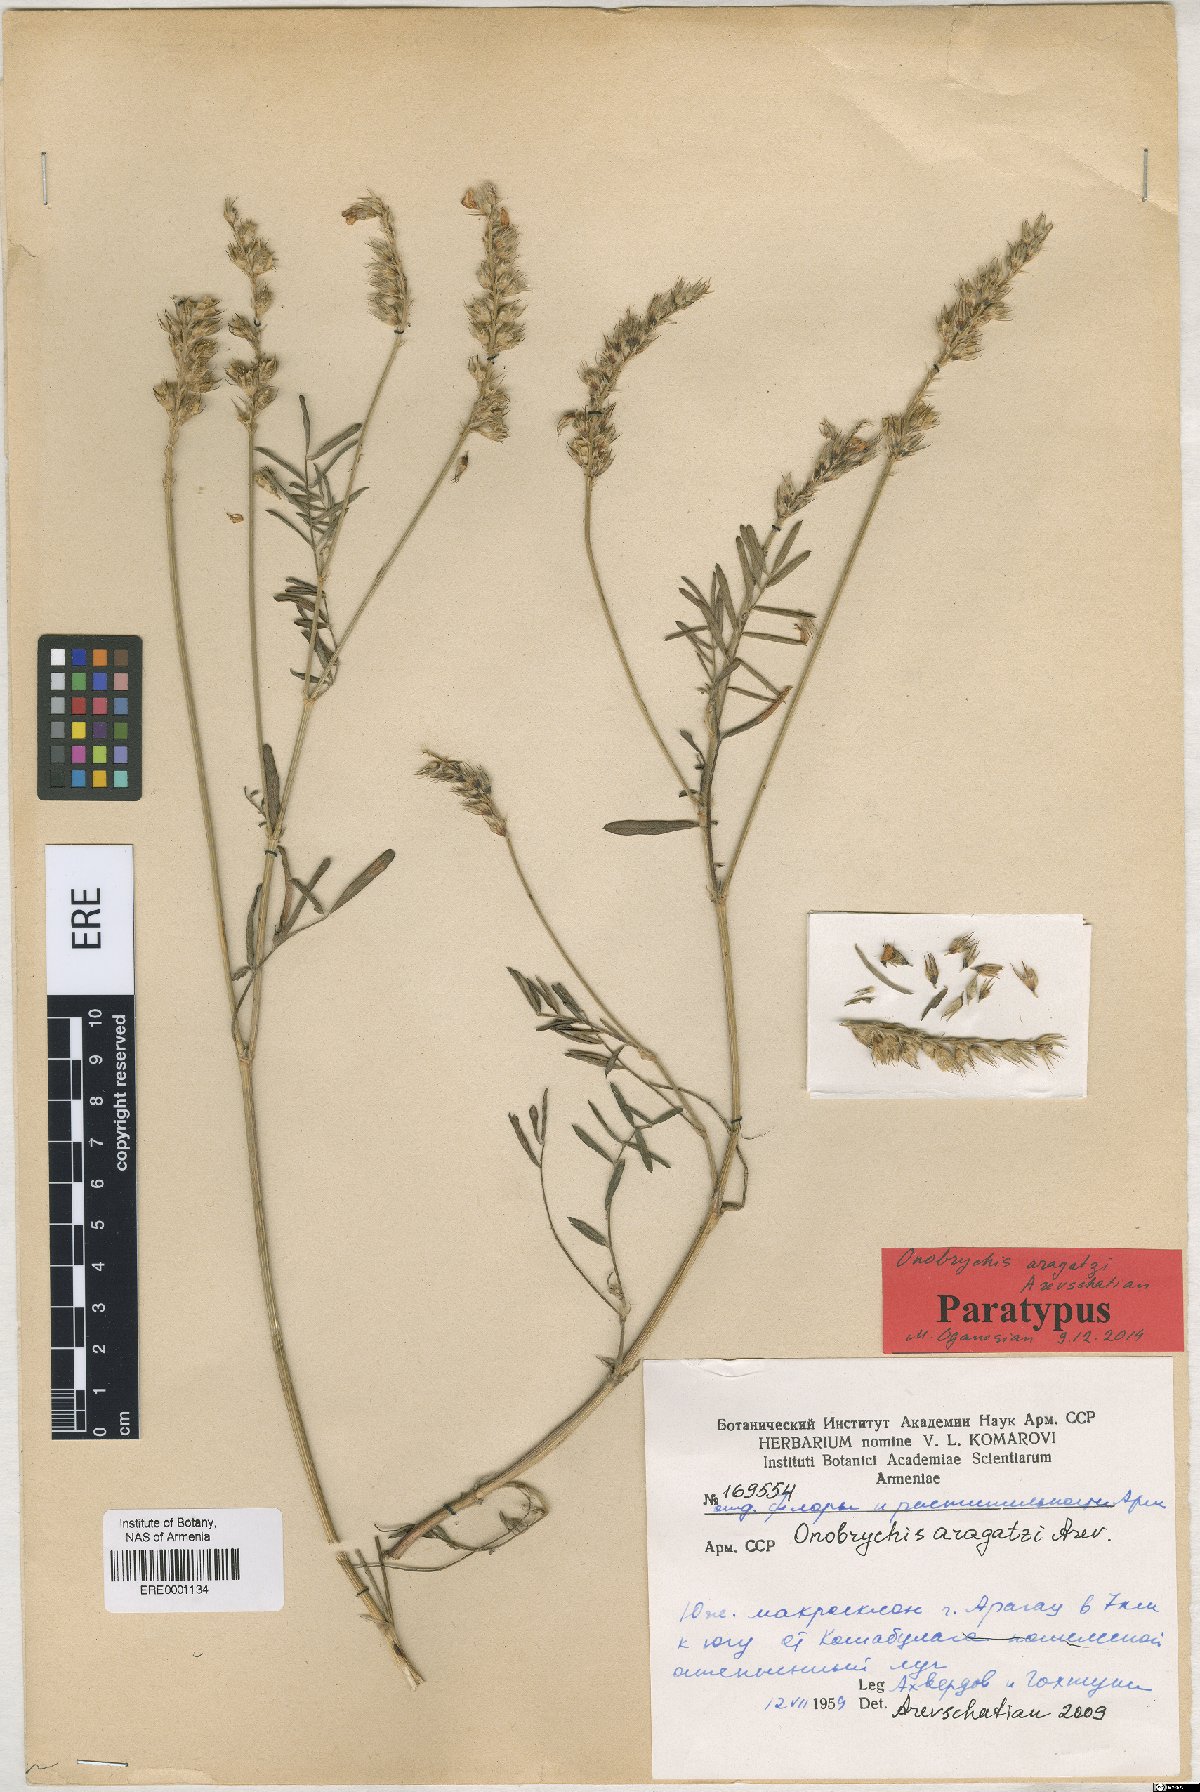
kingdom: Plantae
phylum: Tracheophyta
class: Magnoliopsida
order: Fabales
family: Fabaceae
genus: Onobrychis
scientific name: Onobrychis aragatzi
